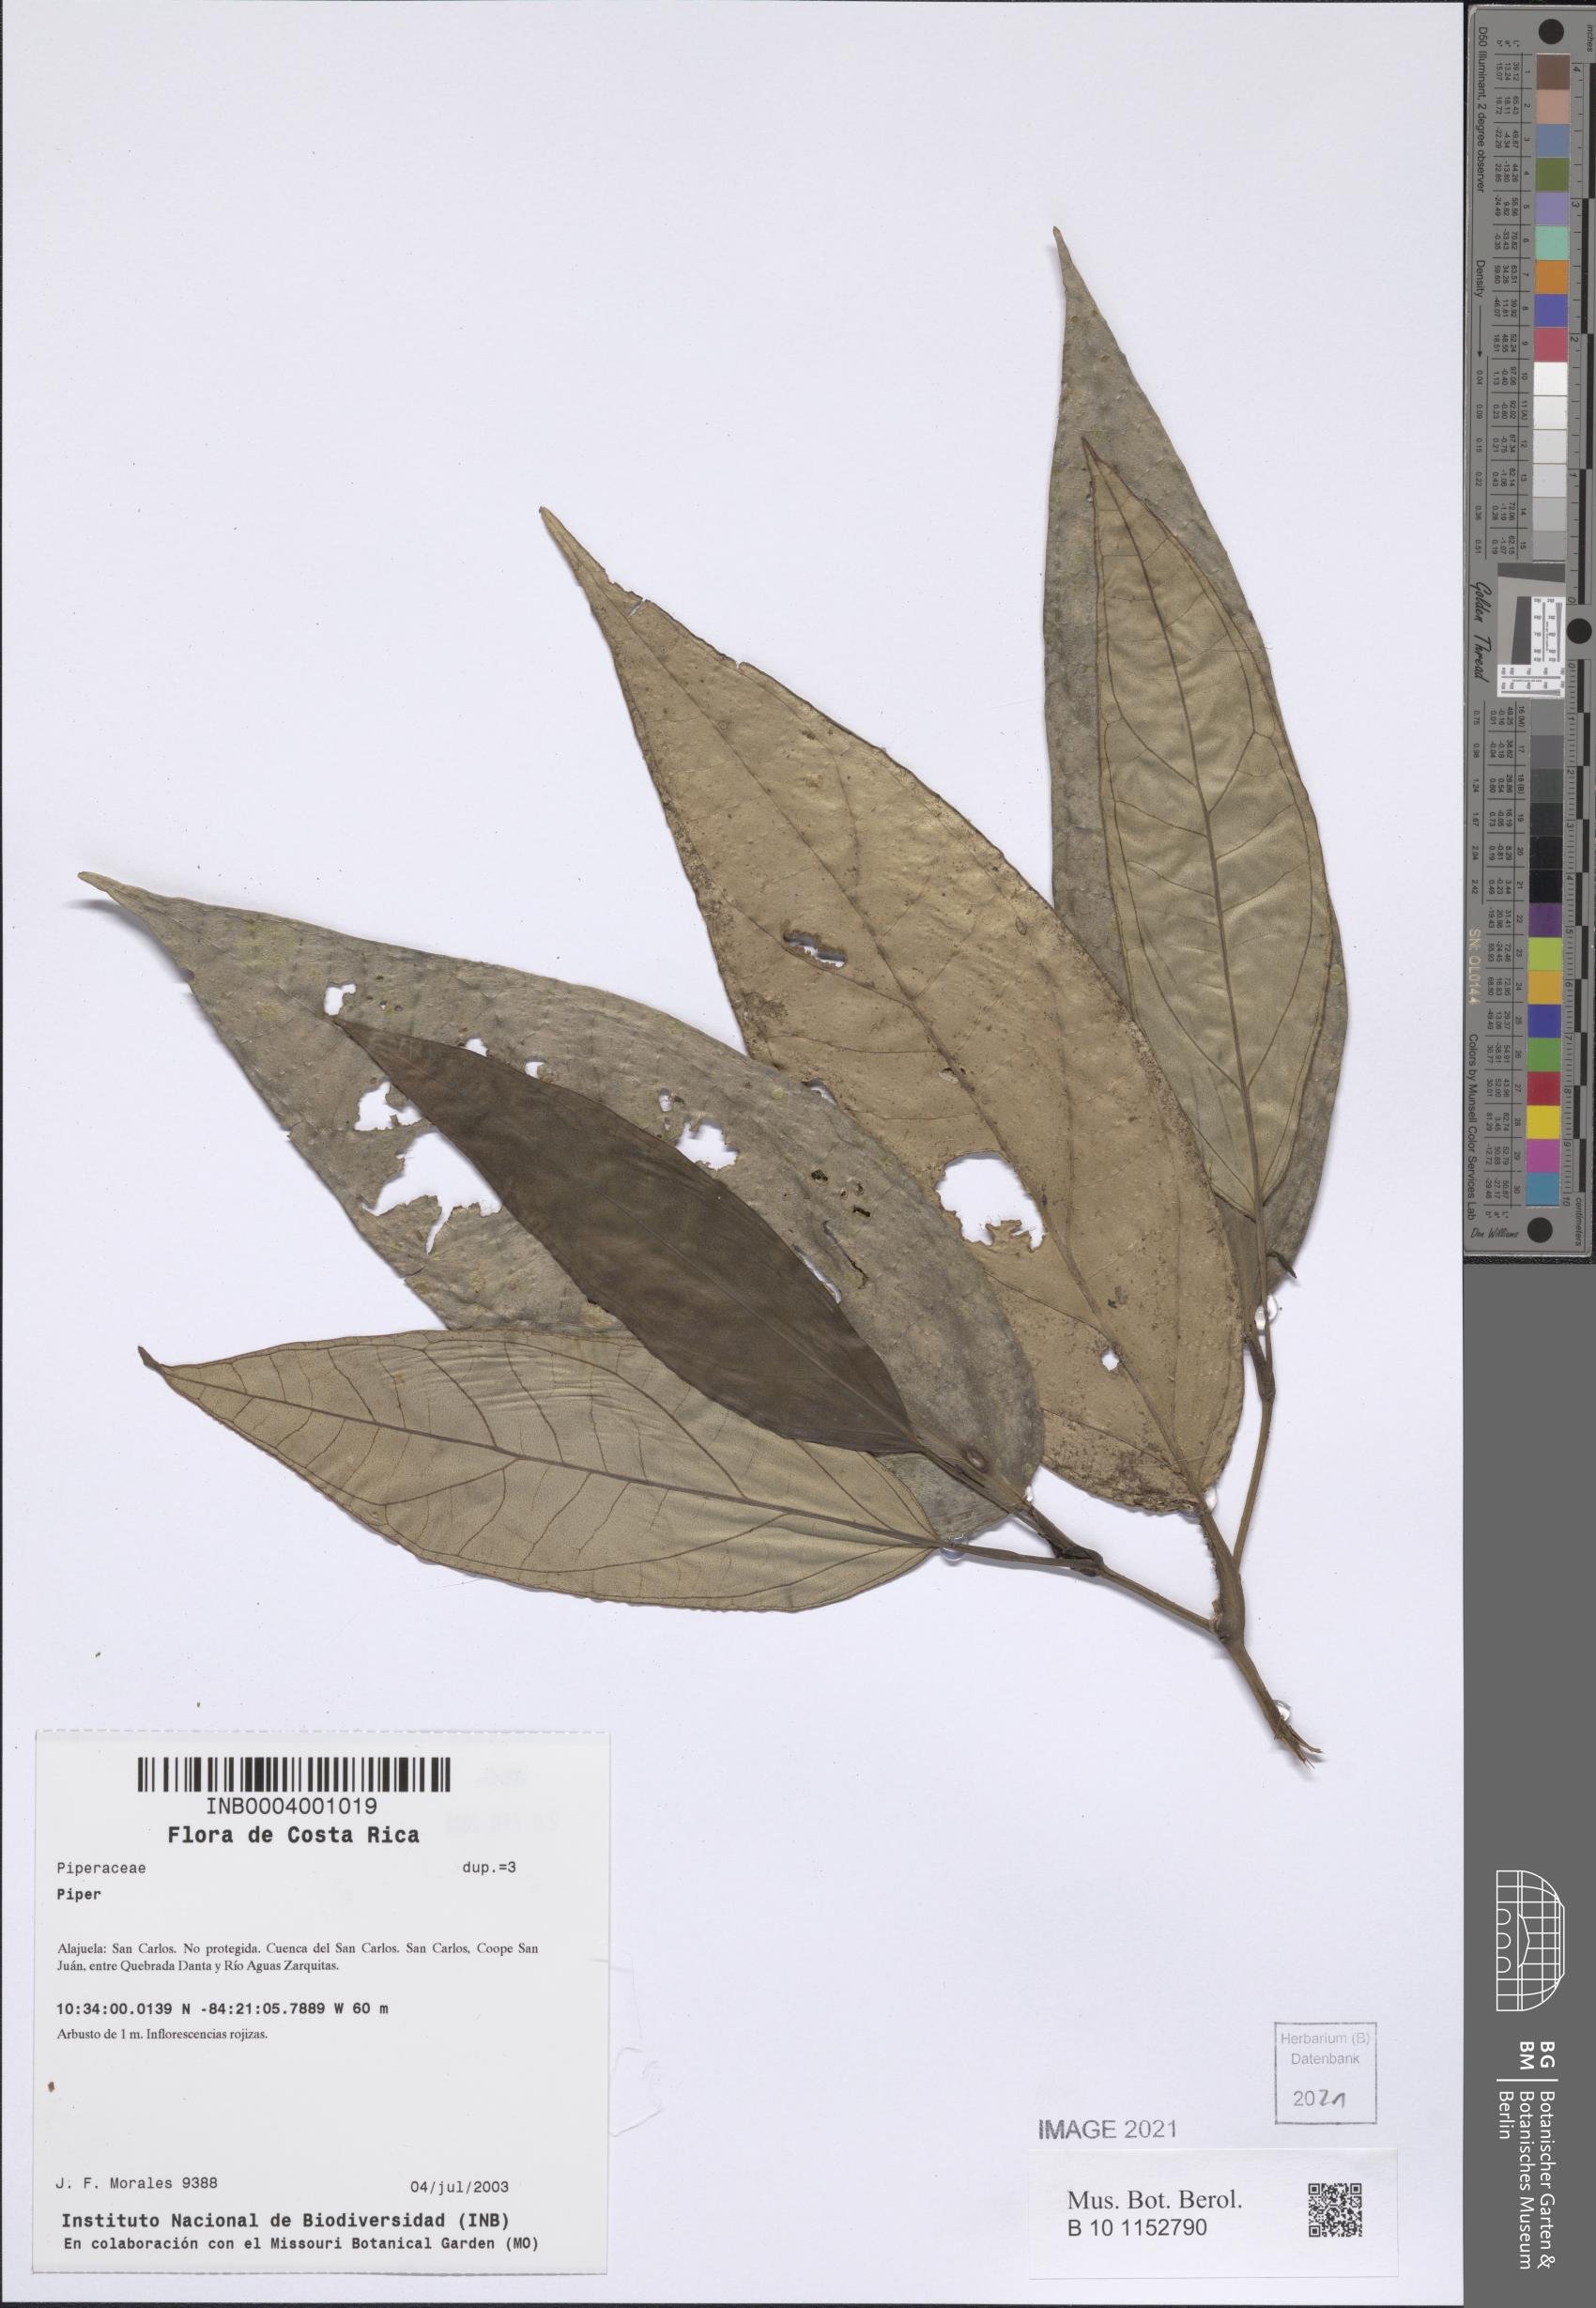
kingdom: Plantae
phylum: Tracheophyta
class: Magnoliopsida
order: Piperales
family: Piperaceae
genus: Piper
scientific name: Piper melanocladum
